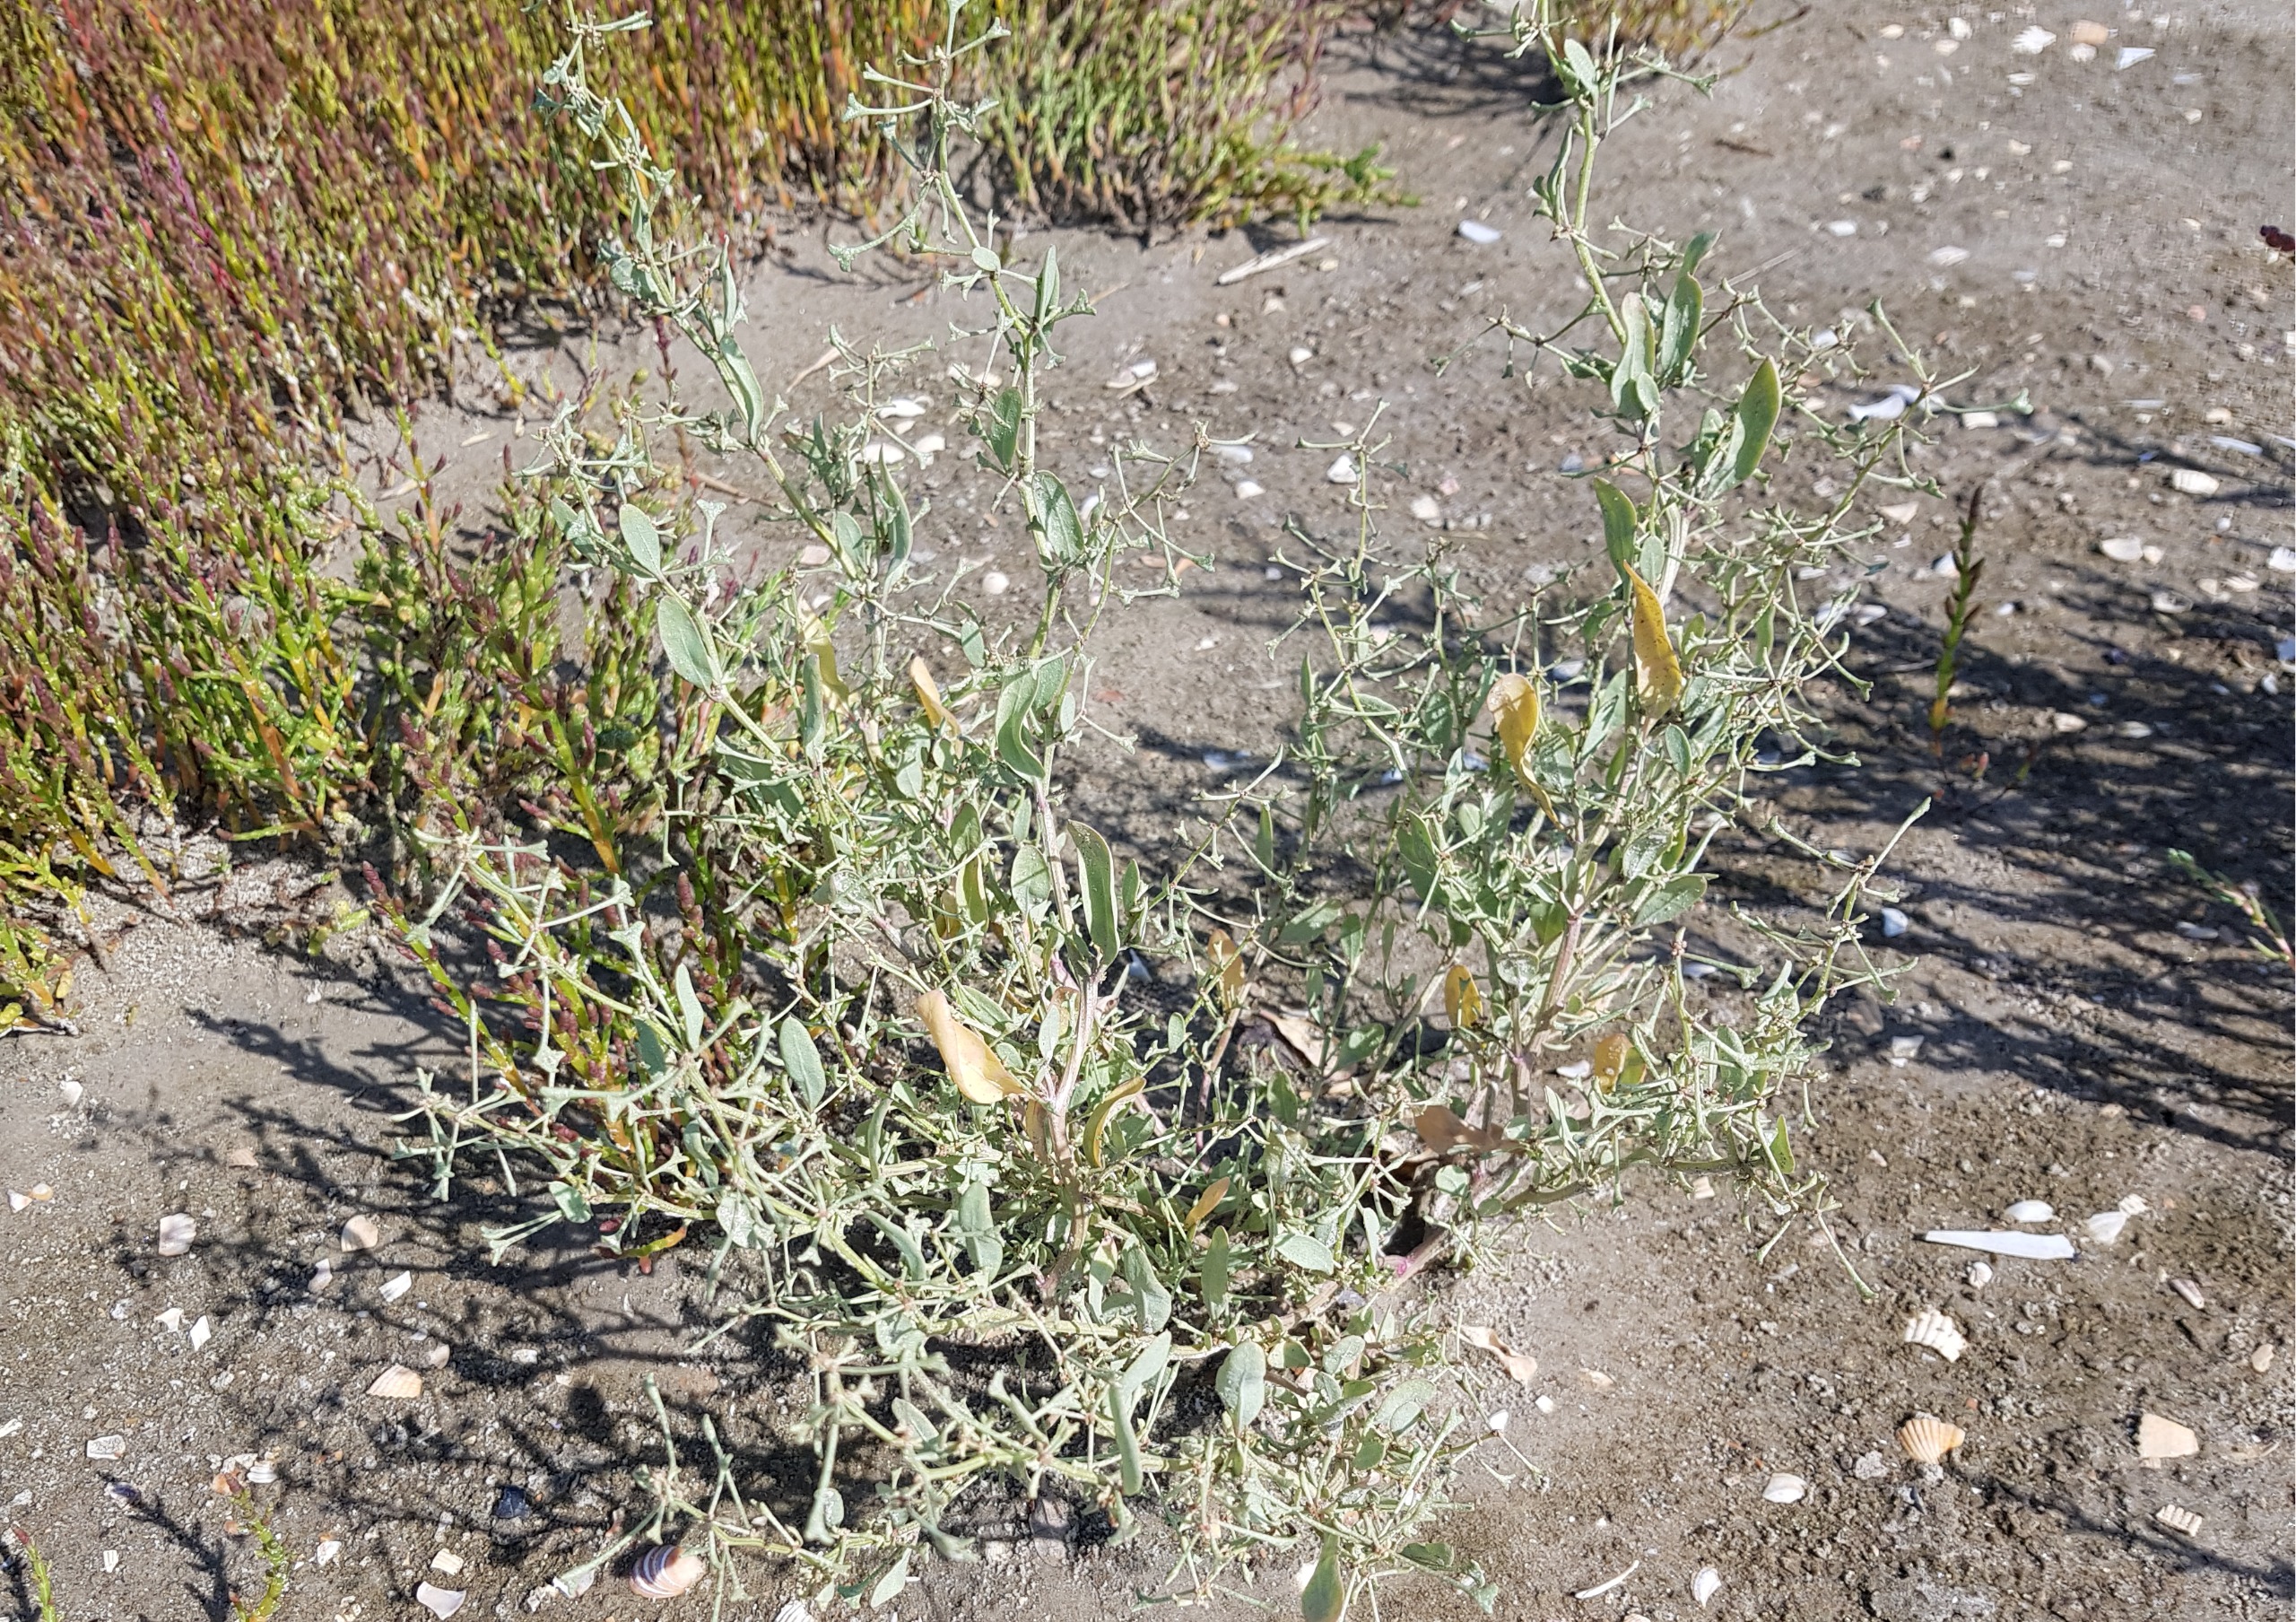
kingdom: Plantae
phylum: Tracheophyta
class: Magnoliopsida
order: Caryophyllales
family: Amaranthaceae
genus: Halimione
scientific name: Halimione pedunculata
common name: Stilket kilebæger
